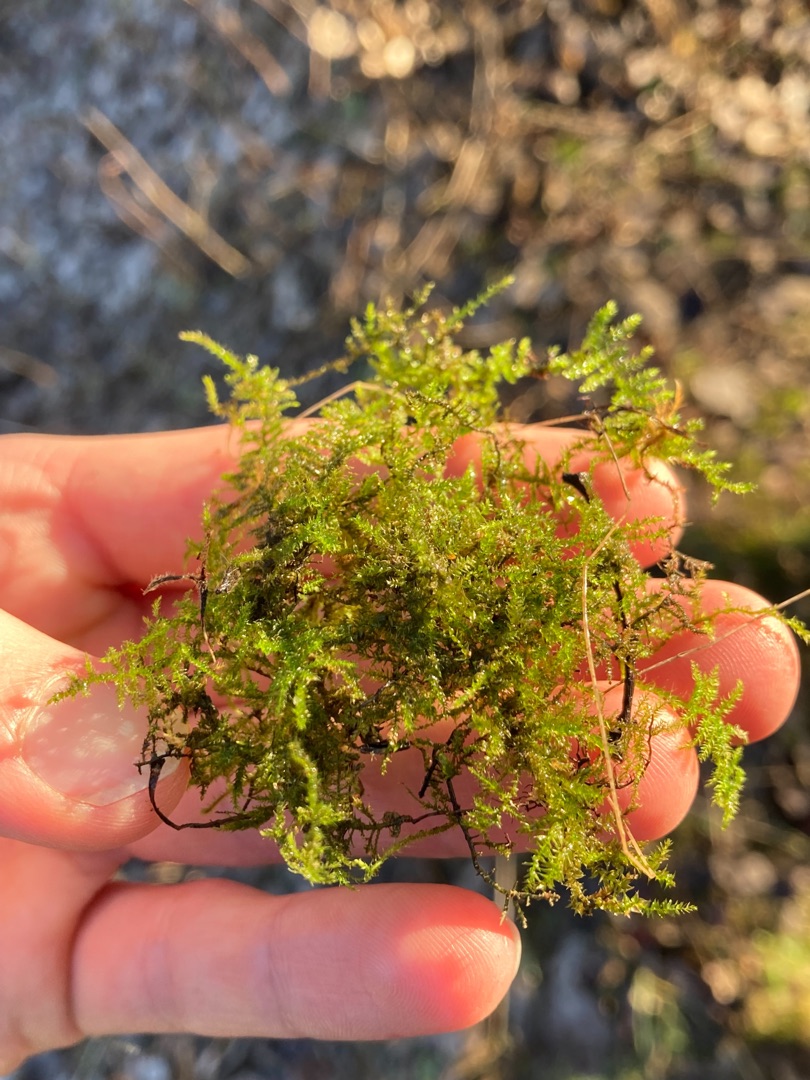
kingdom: Plantae
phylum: Bryophyta
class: Bryopsida
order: Hypnales
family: Brachytheciaceae
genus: Kindbergia
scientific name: Kindbergia praelonga
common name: Forskelligbladet vortetand
